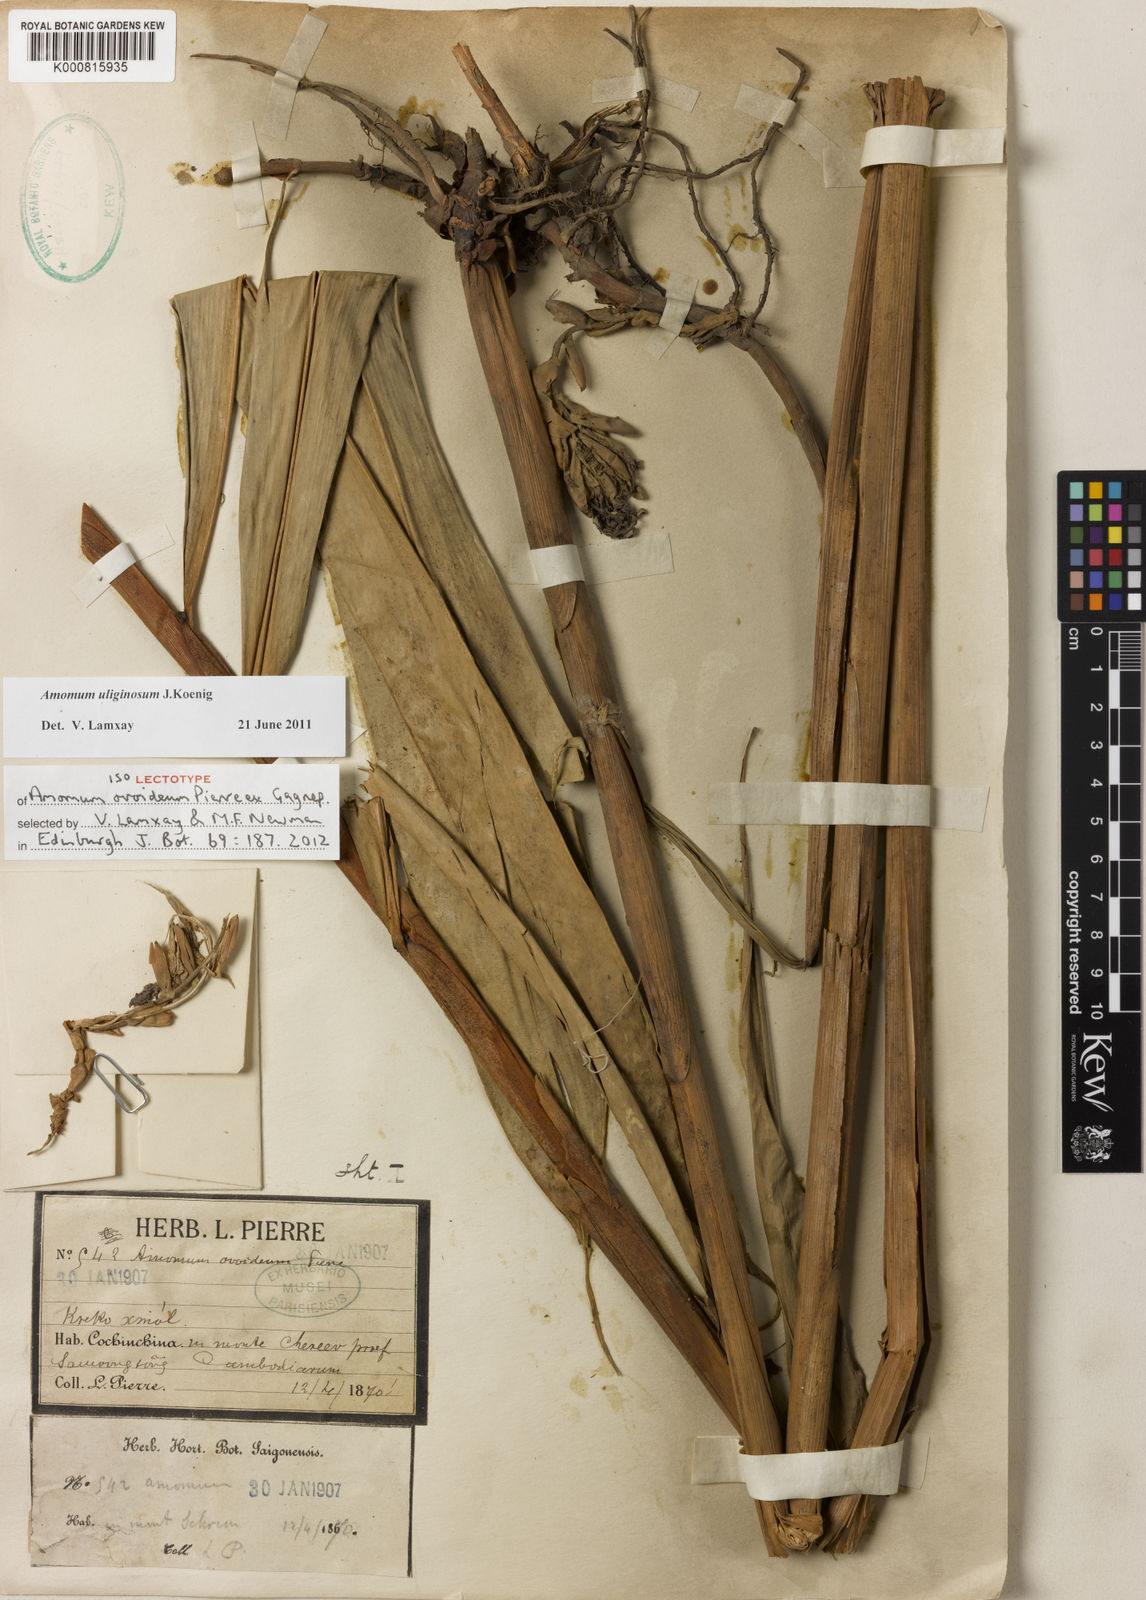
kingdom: Plantae
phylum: Tracheophyta
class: Liliopsida
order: Zingiberales
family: Zingiberaceae
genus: Wurfbainia
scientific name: Wurfbainia uliginosa
